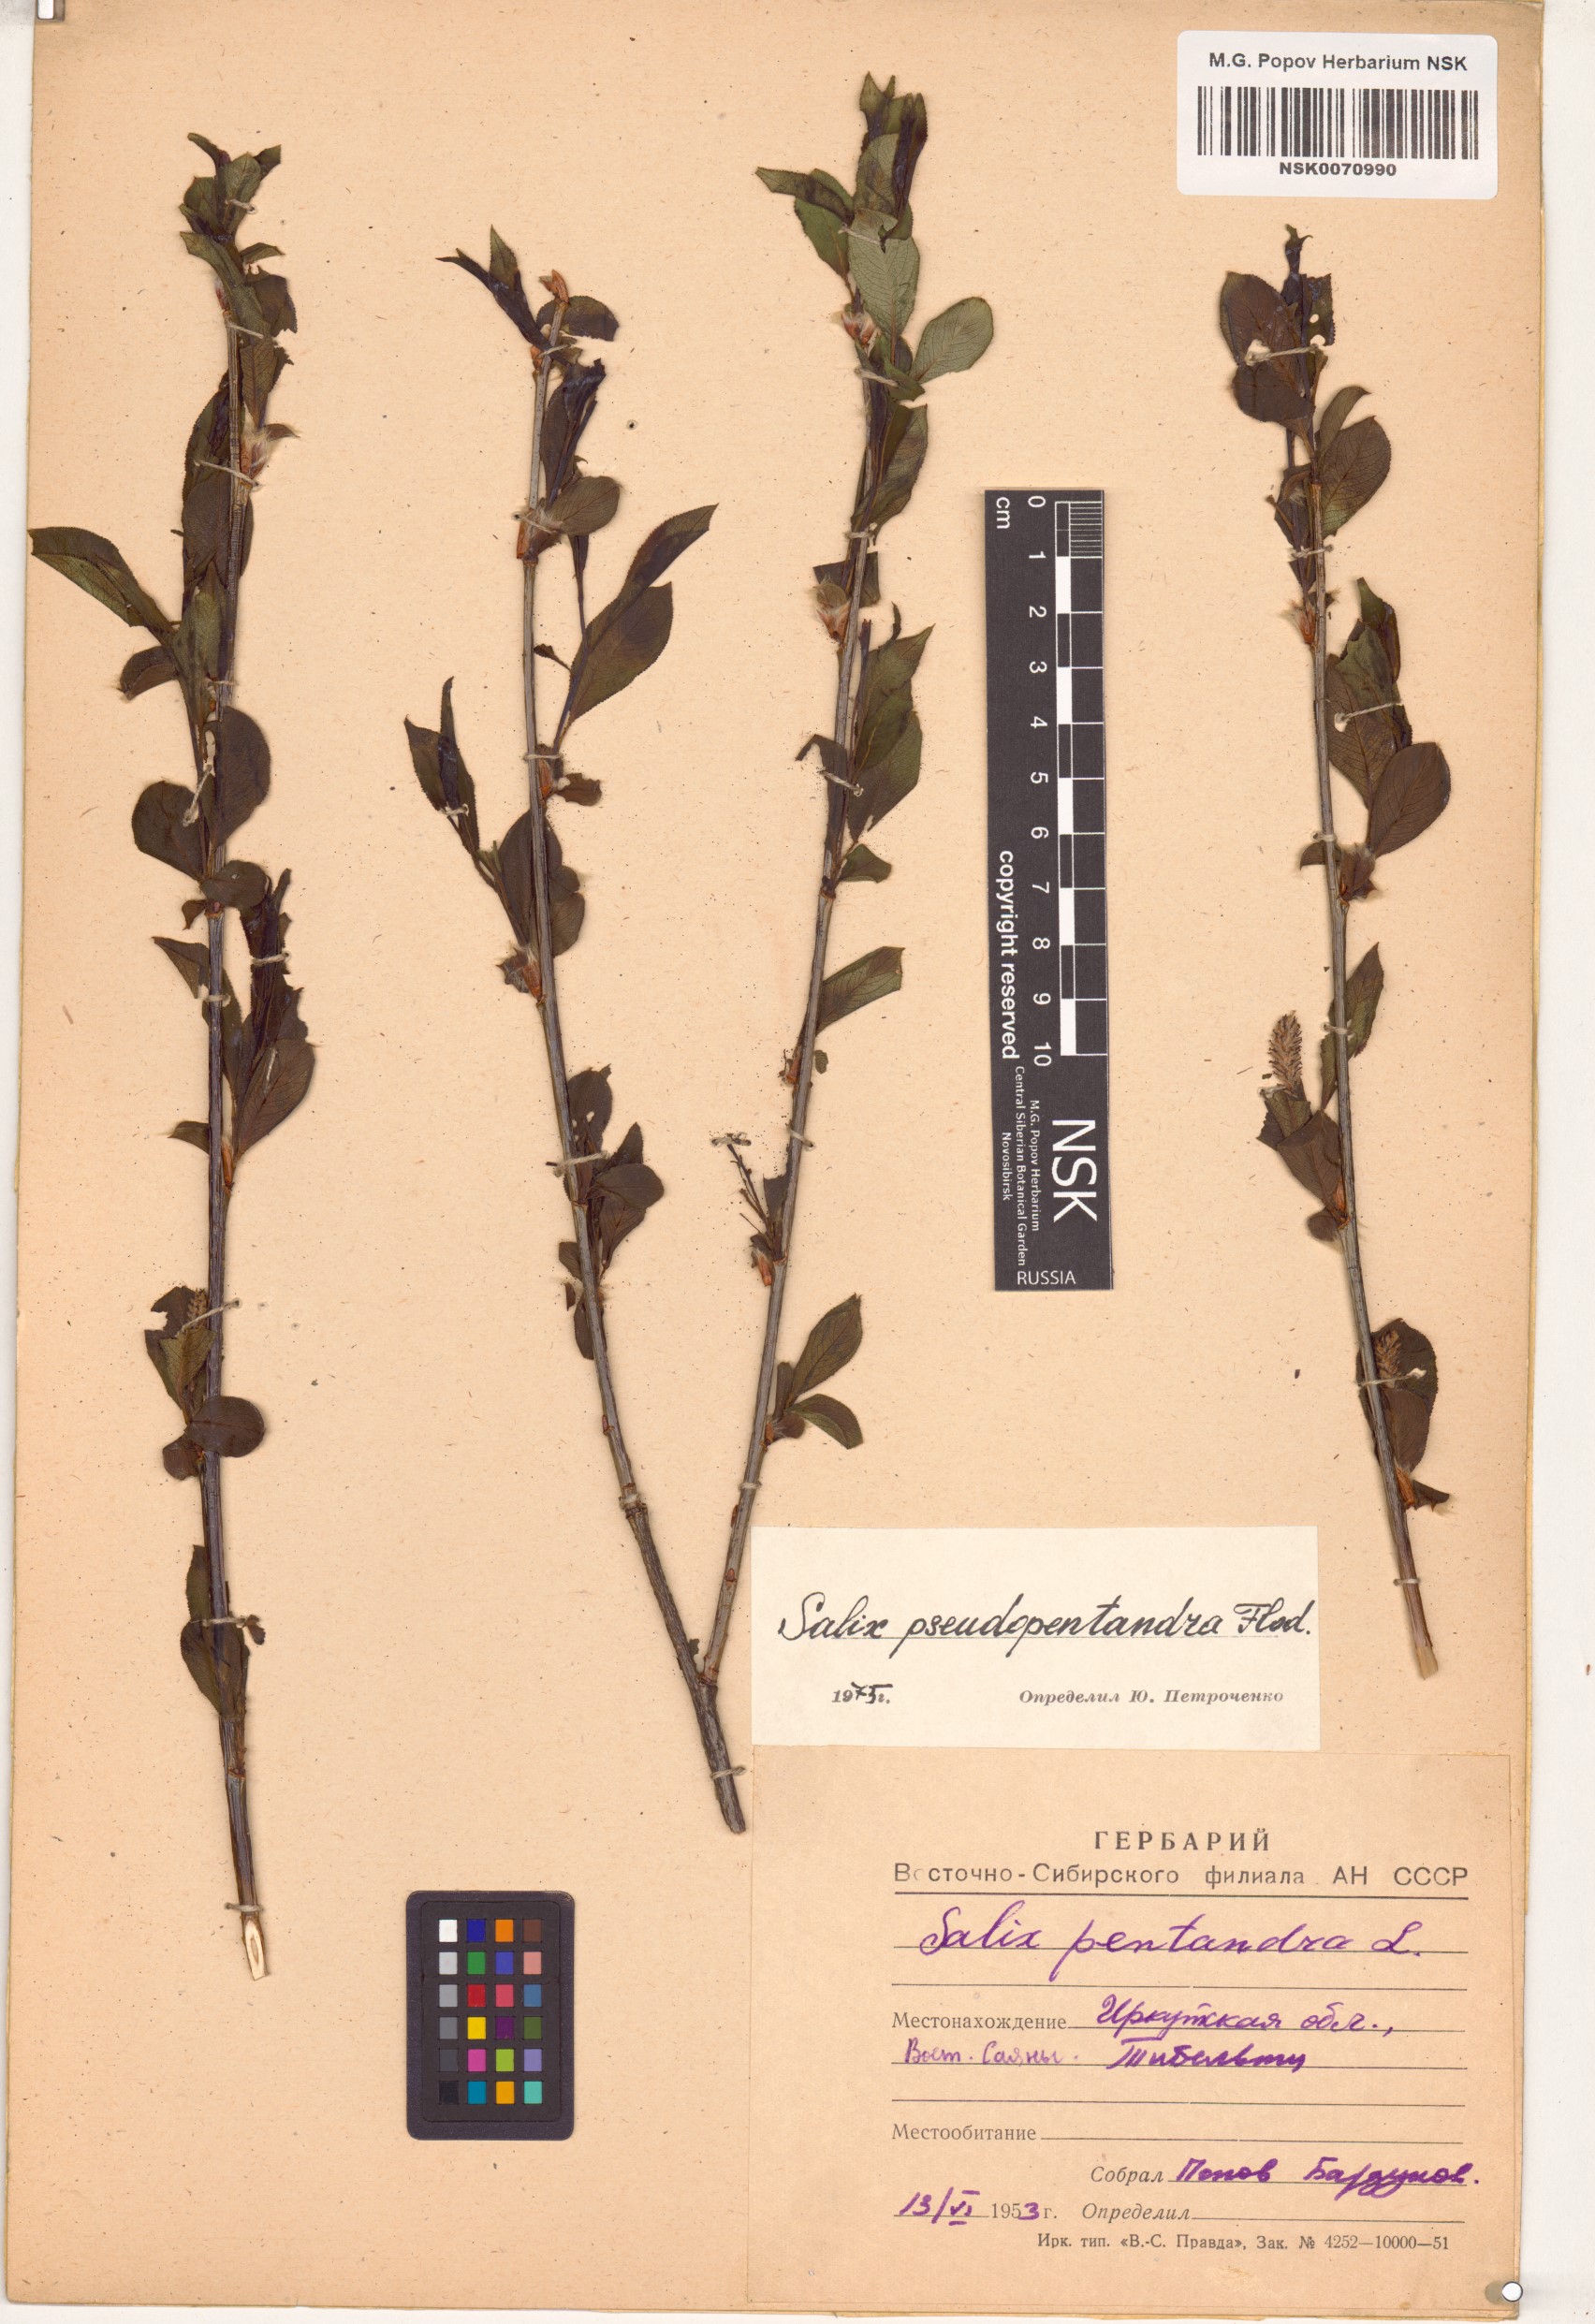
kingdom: Plantae
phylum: Tracheophyta
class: Magnoliopsida
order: Malpighiales
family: Salicaceae
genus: Salix
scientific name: Salix pseudopentandra
